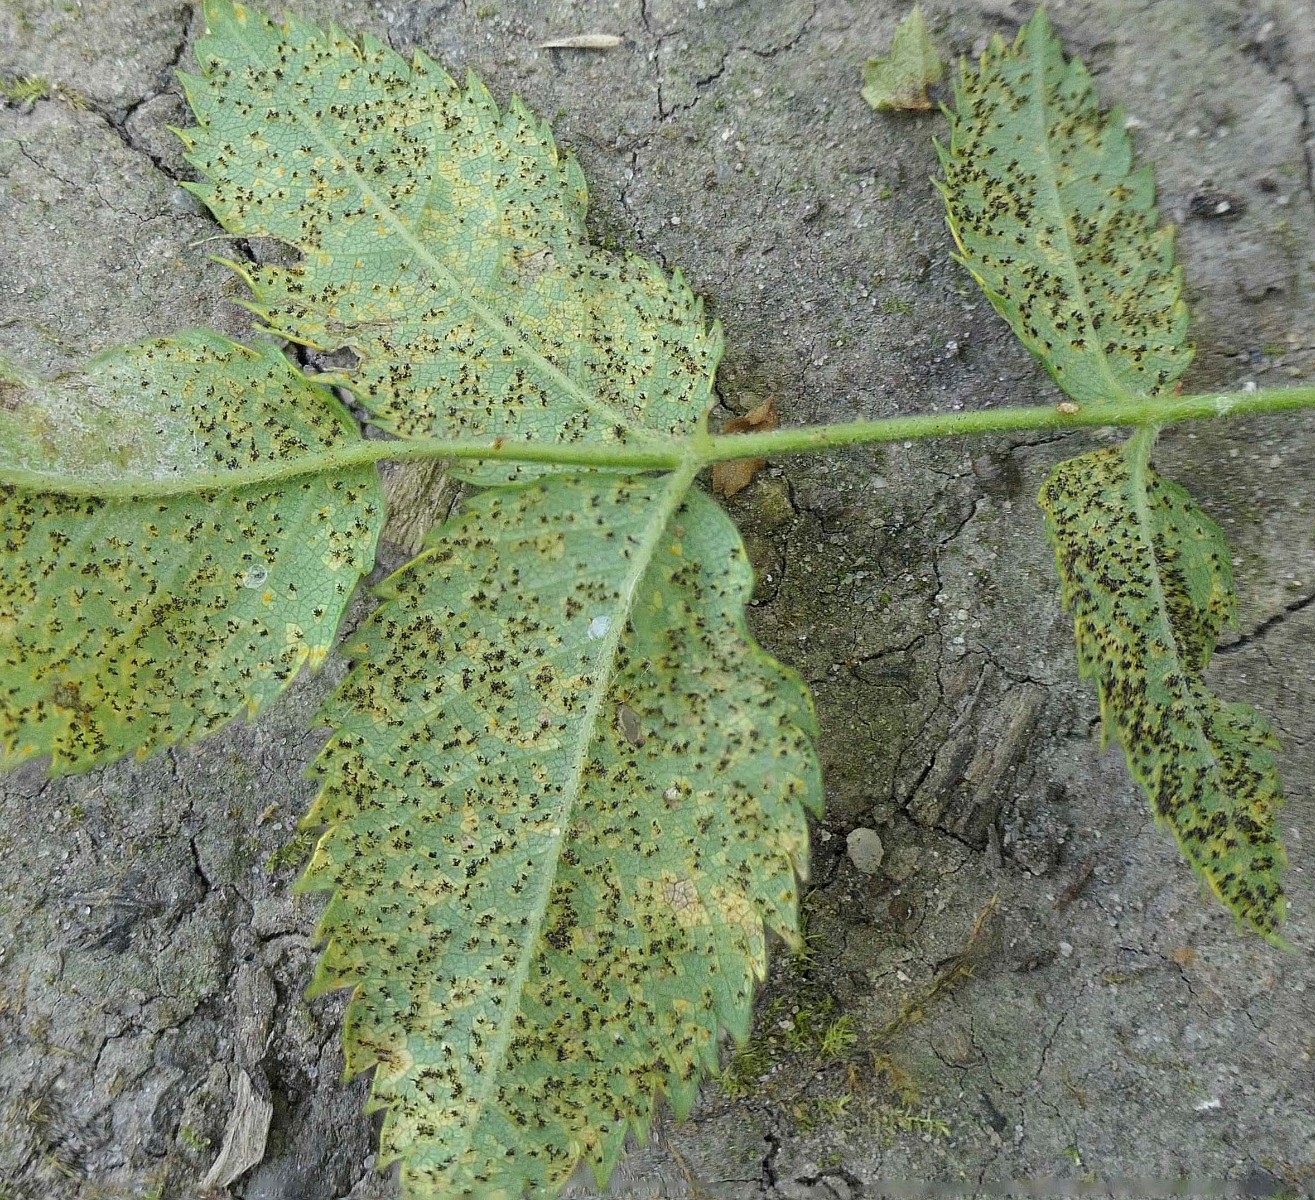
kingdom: Fungi
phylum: Basidiomycota
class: Pucciniomycetes
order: Pucciniales
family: Phragmidiaceae
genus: Phragmidium
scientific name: Phragmidium mucronatum
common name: rose-flercellerust
